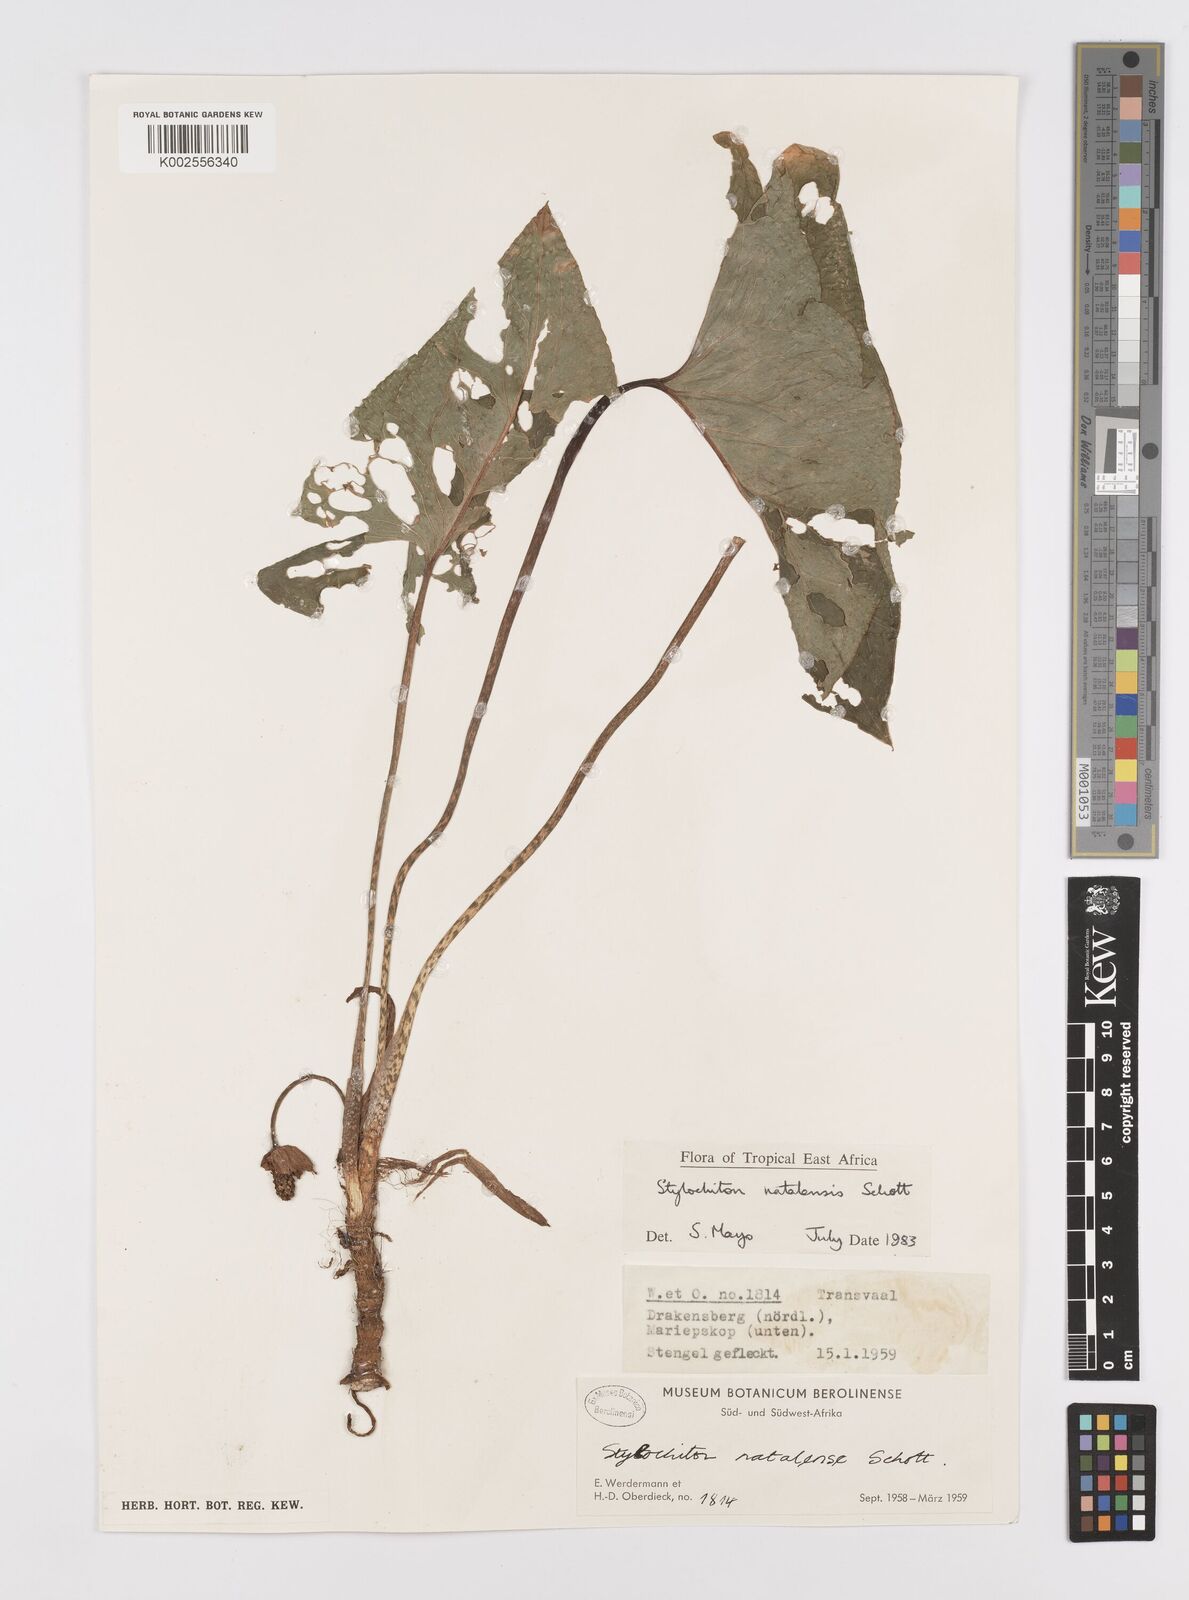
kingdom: Plantae
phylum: Tracheophyta
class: Liliopsida
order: Alismatales
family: Araceae
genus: Stylochaeton
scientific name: Stylochaeton natalense
